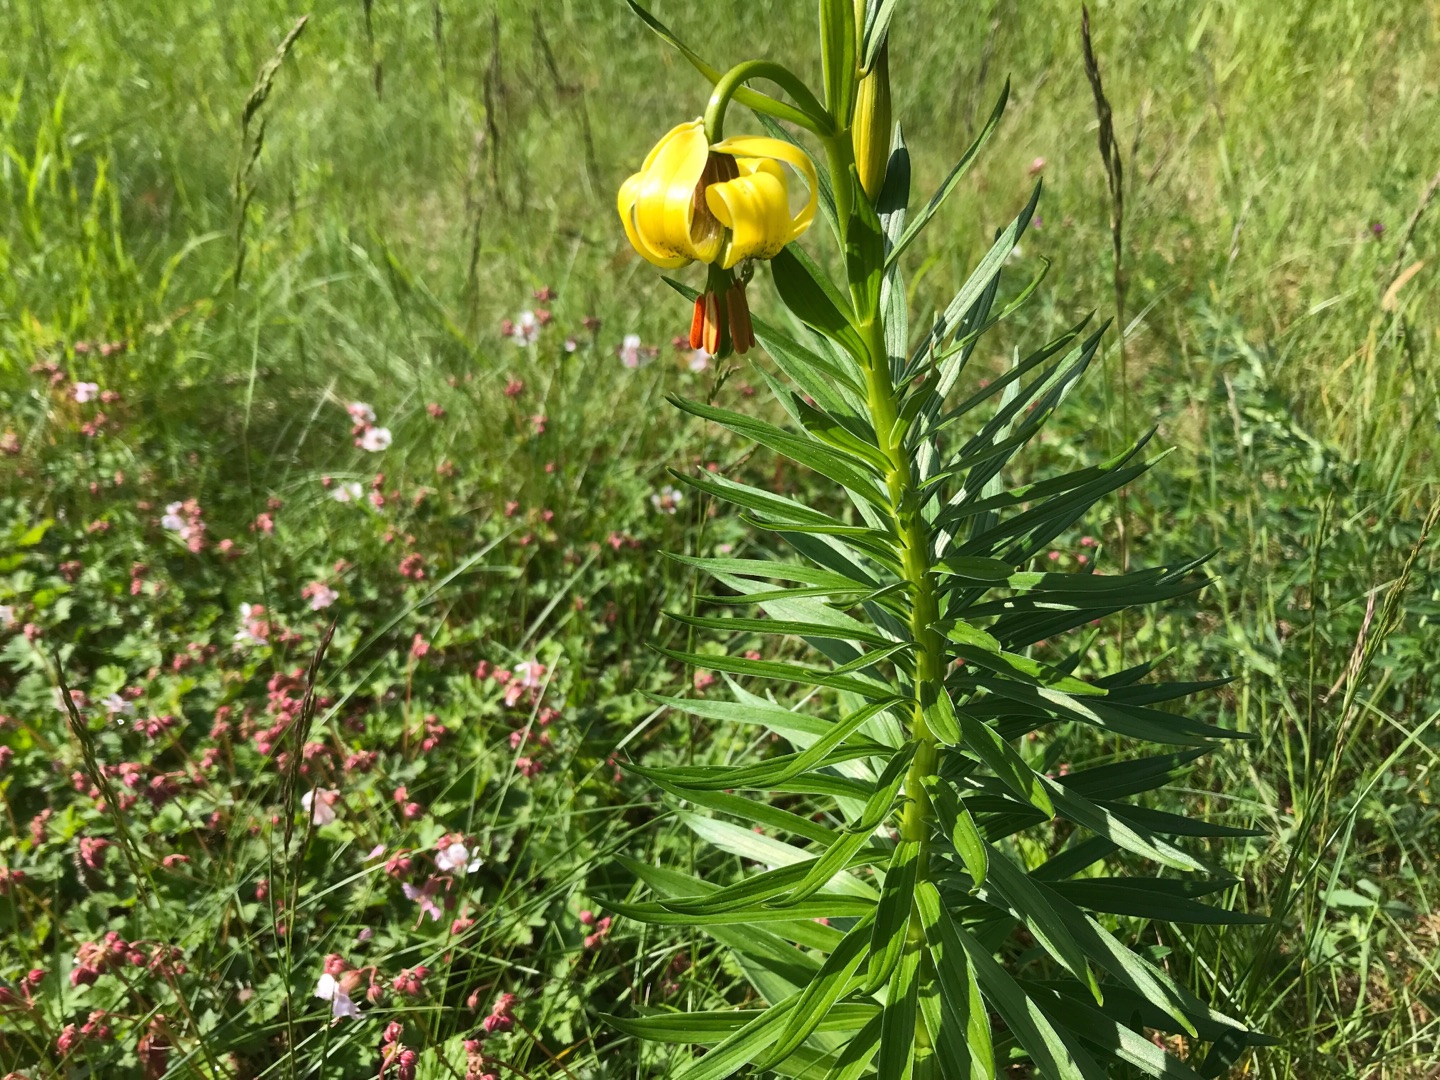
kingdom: Plantae
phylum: Tracheophyta
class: Liliopsida
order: Liliales
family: Liliaceae
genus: Lilium
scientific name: Lilium pyrenaicum
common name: Pyrenæisk lilje
